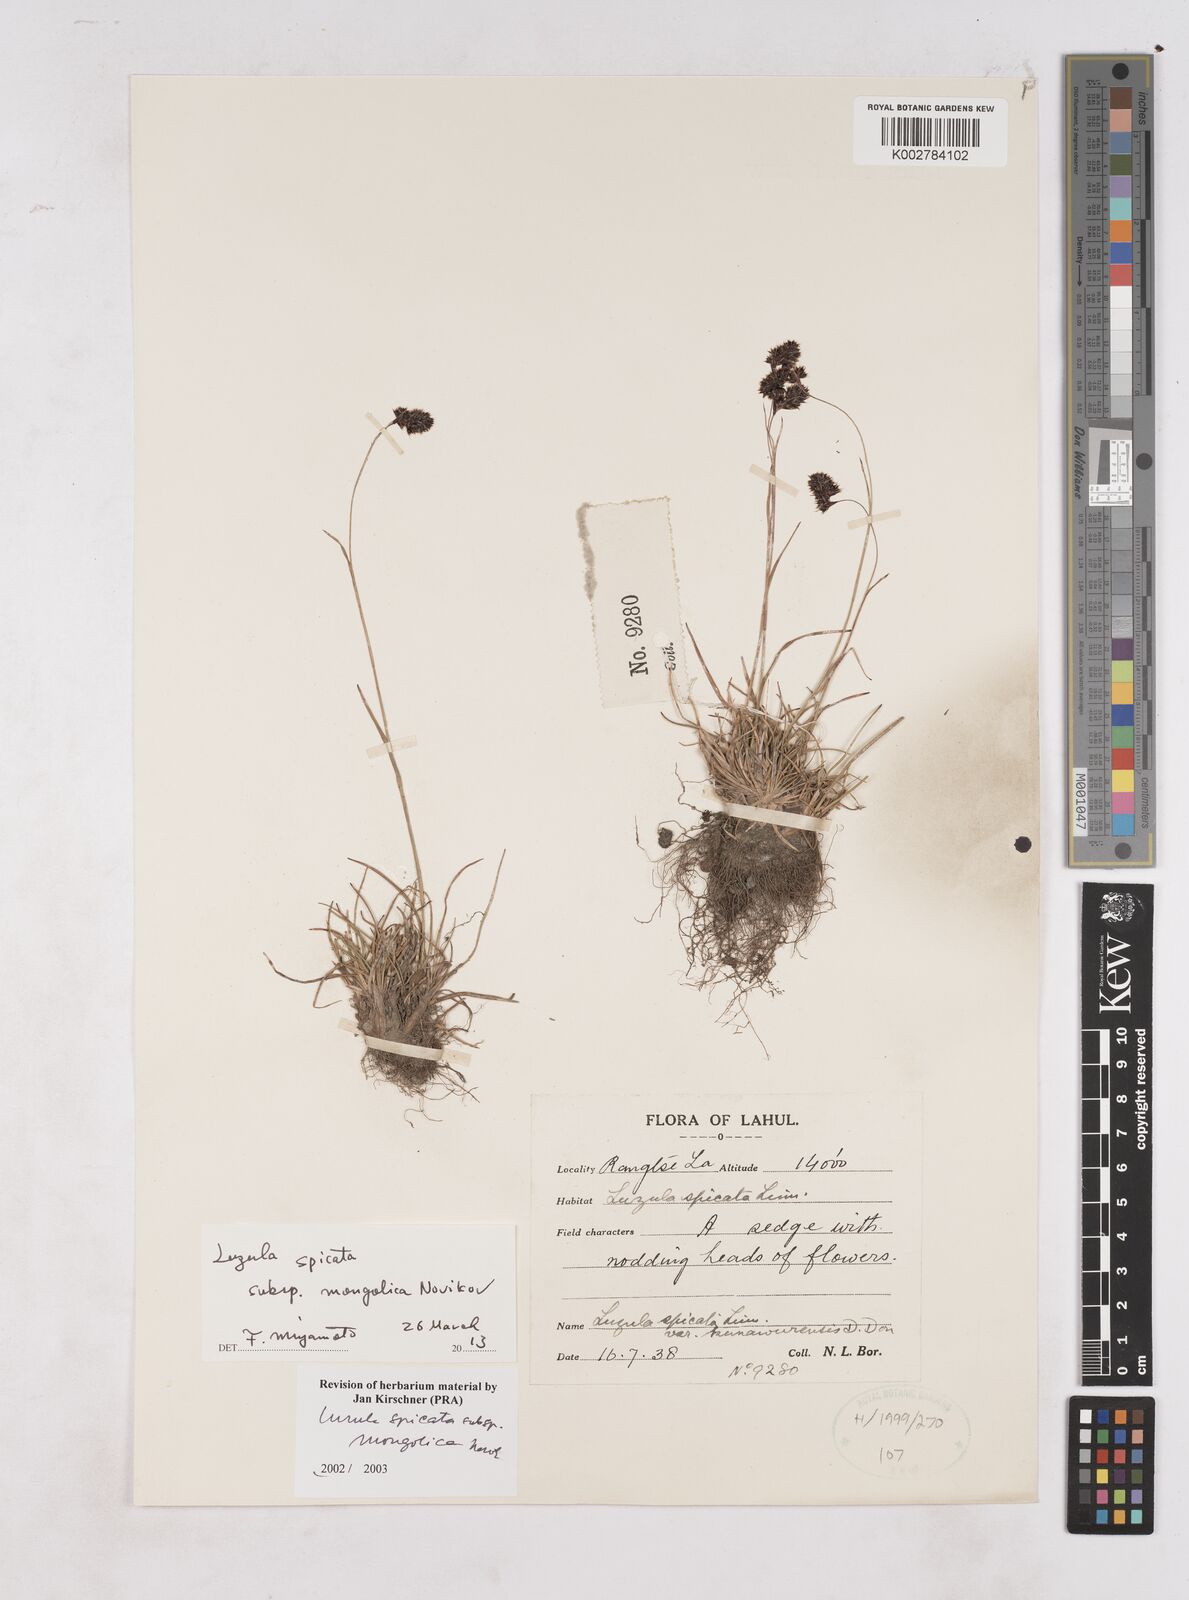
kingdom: Plantae
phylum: Tracheophyta
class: Liliopsida
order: Poales
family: Juncaceae
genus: Luzula
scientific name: Luzula spicata
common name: Spiked wood-rush
